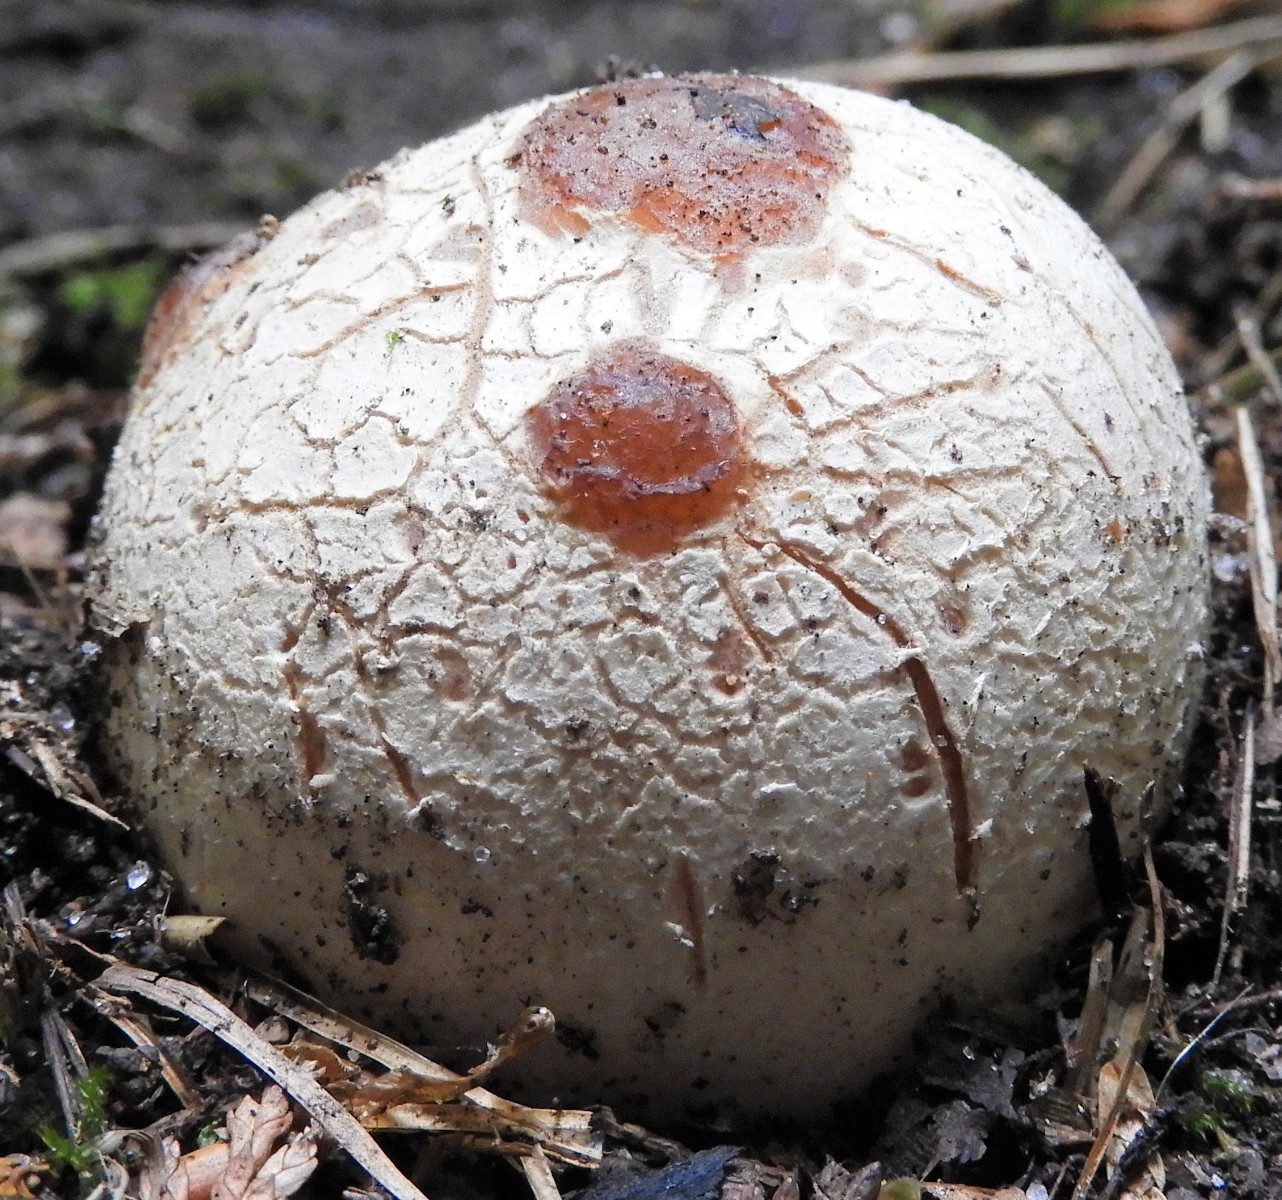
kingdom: Fungi
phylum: Basidiomycota
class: Agaricomycetes
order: Phallales
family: Phallaceae
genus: Phallus
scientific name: Phallus impudicus
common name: almindelig stinksvamp
